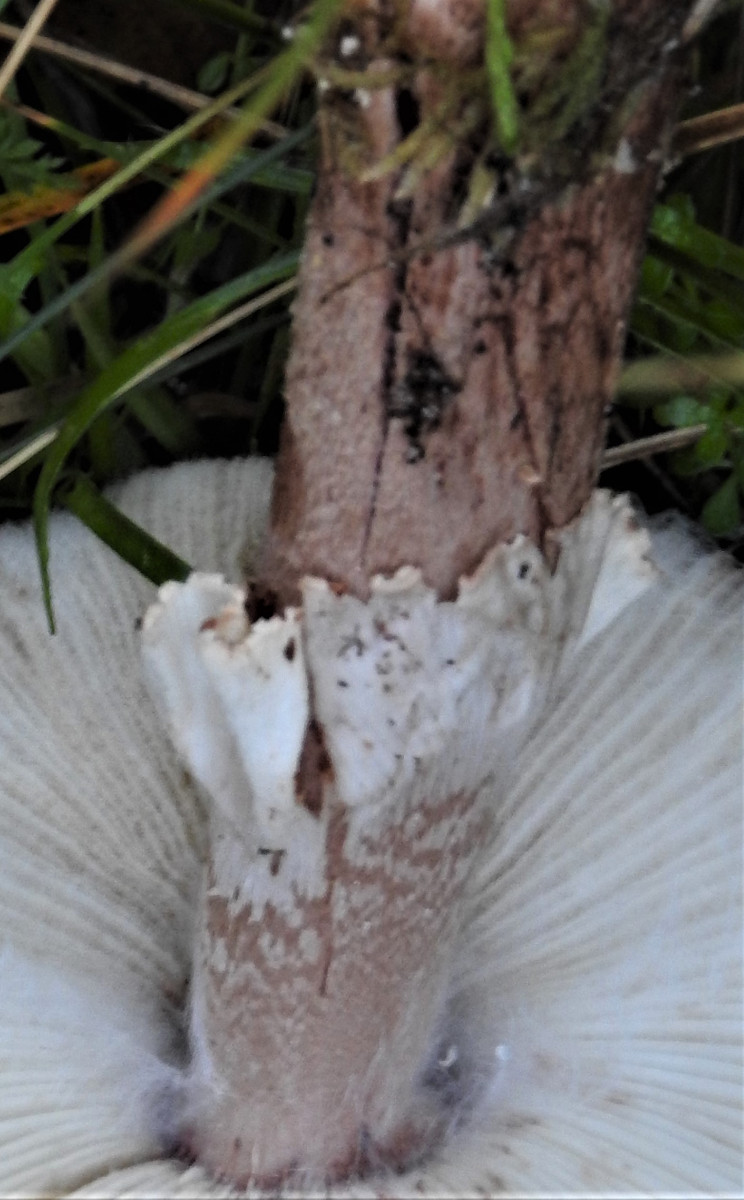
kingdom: Fungi
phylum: Basidiomycota
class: Agaricomycetes
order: Agaricales
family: Amanitaceae
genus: Amanita
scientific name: Amanita rubescens
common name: rødmende fluesvamp
